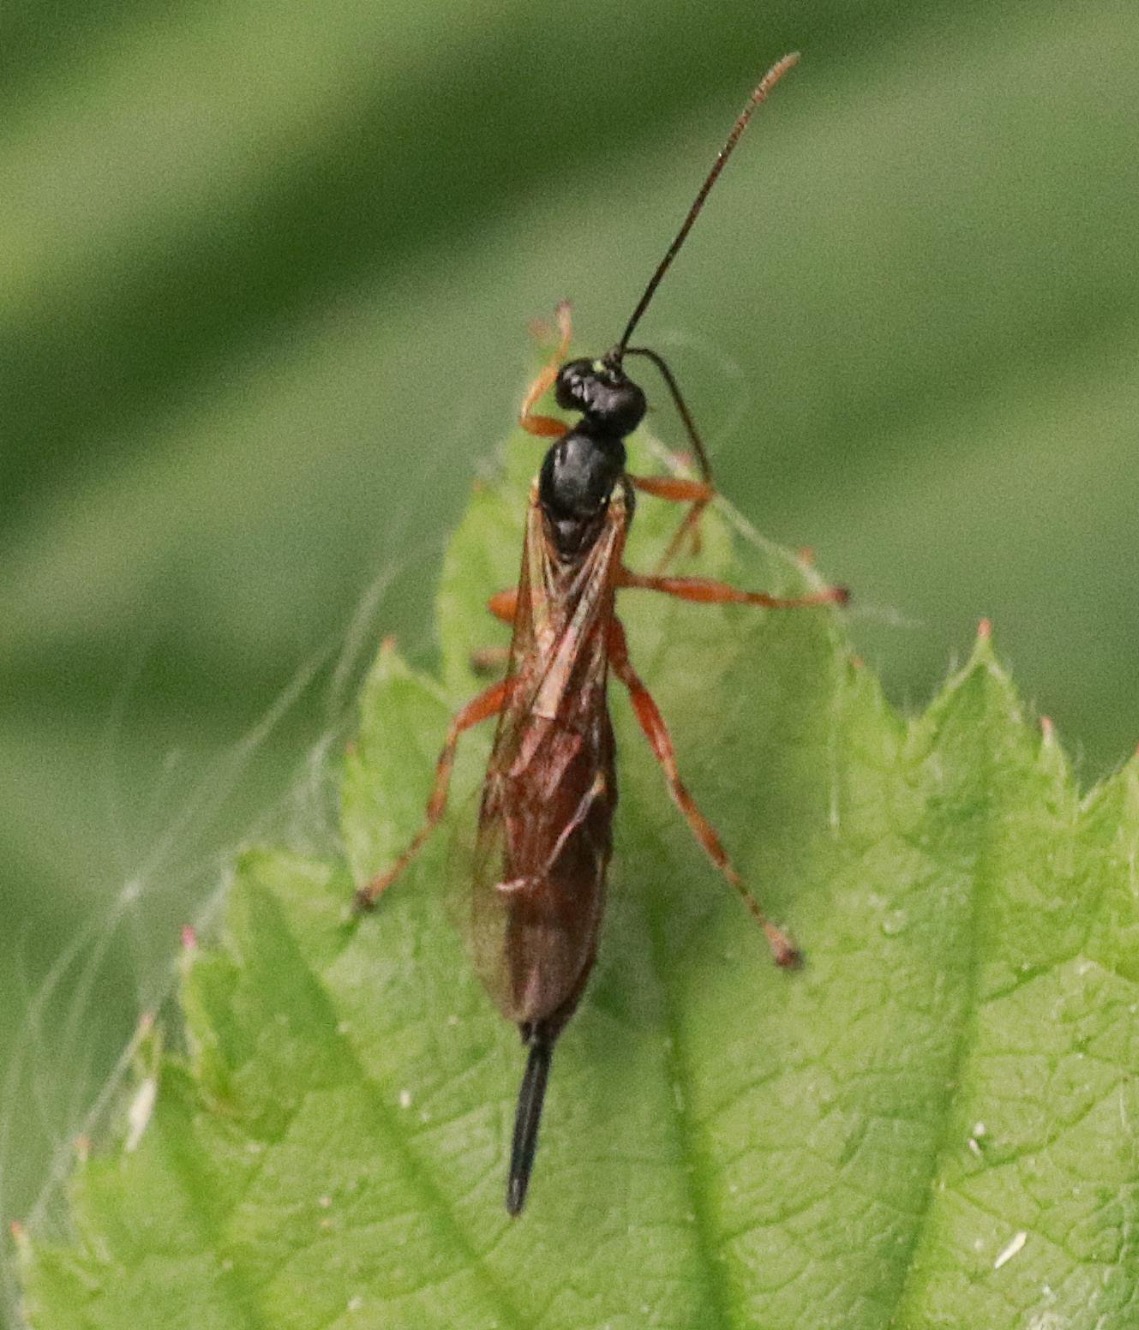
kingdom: Animalia
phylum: Arthropoda
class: Insecta
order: Hymenoptera
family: Ichneumonidae
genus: Endromopoda
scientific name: Endromopoda
